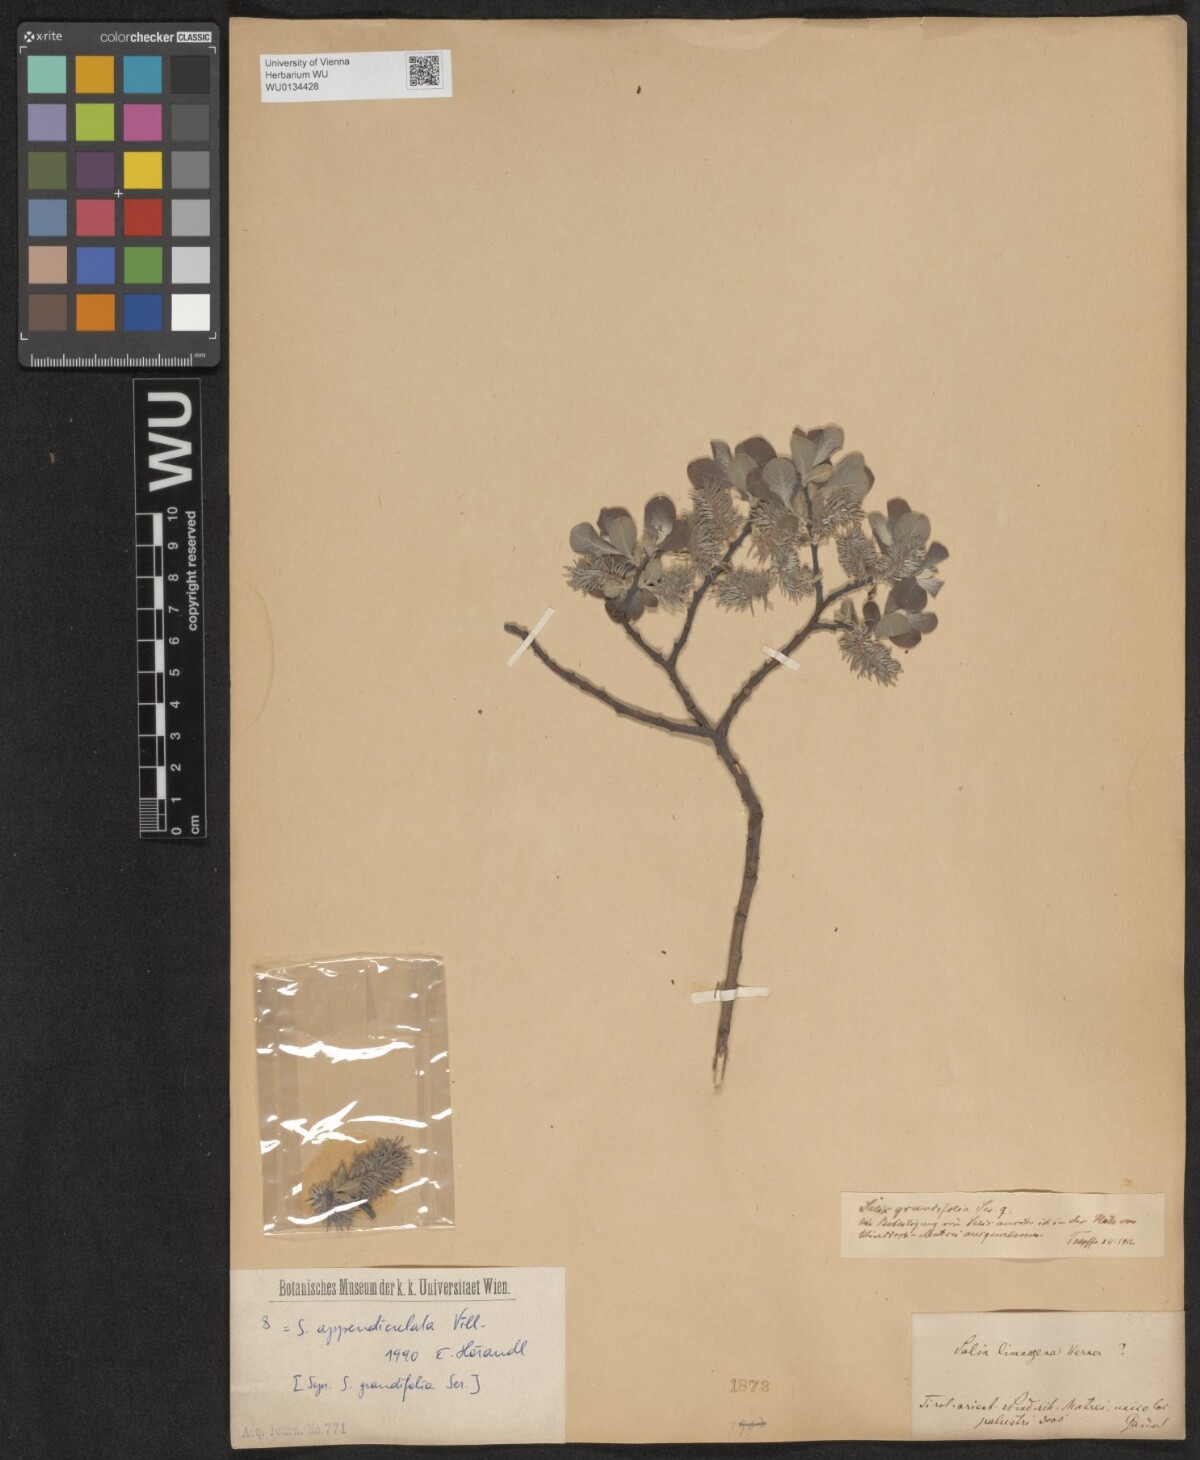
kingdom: Plantae
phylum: Tracheophyta
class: Magnoliopsida
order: Malpighiales
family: Salicaceae
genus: Salix
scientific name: Salix appendiculata
